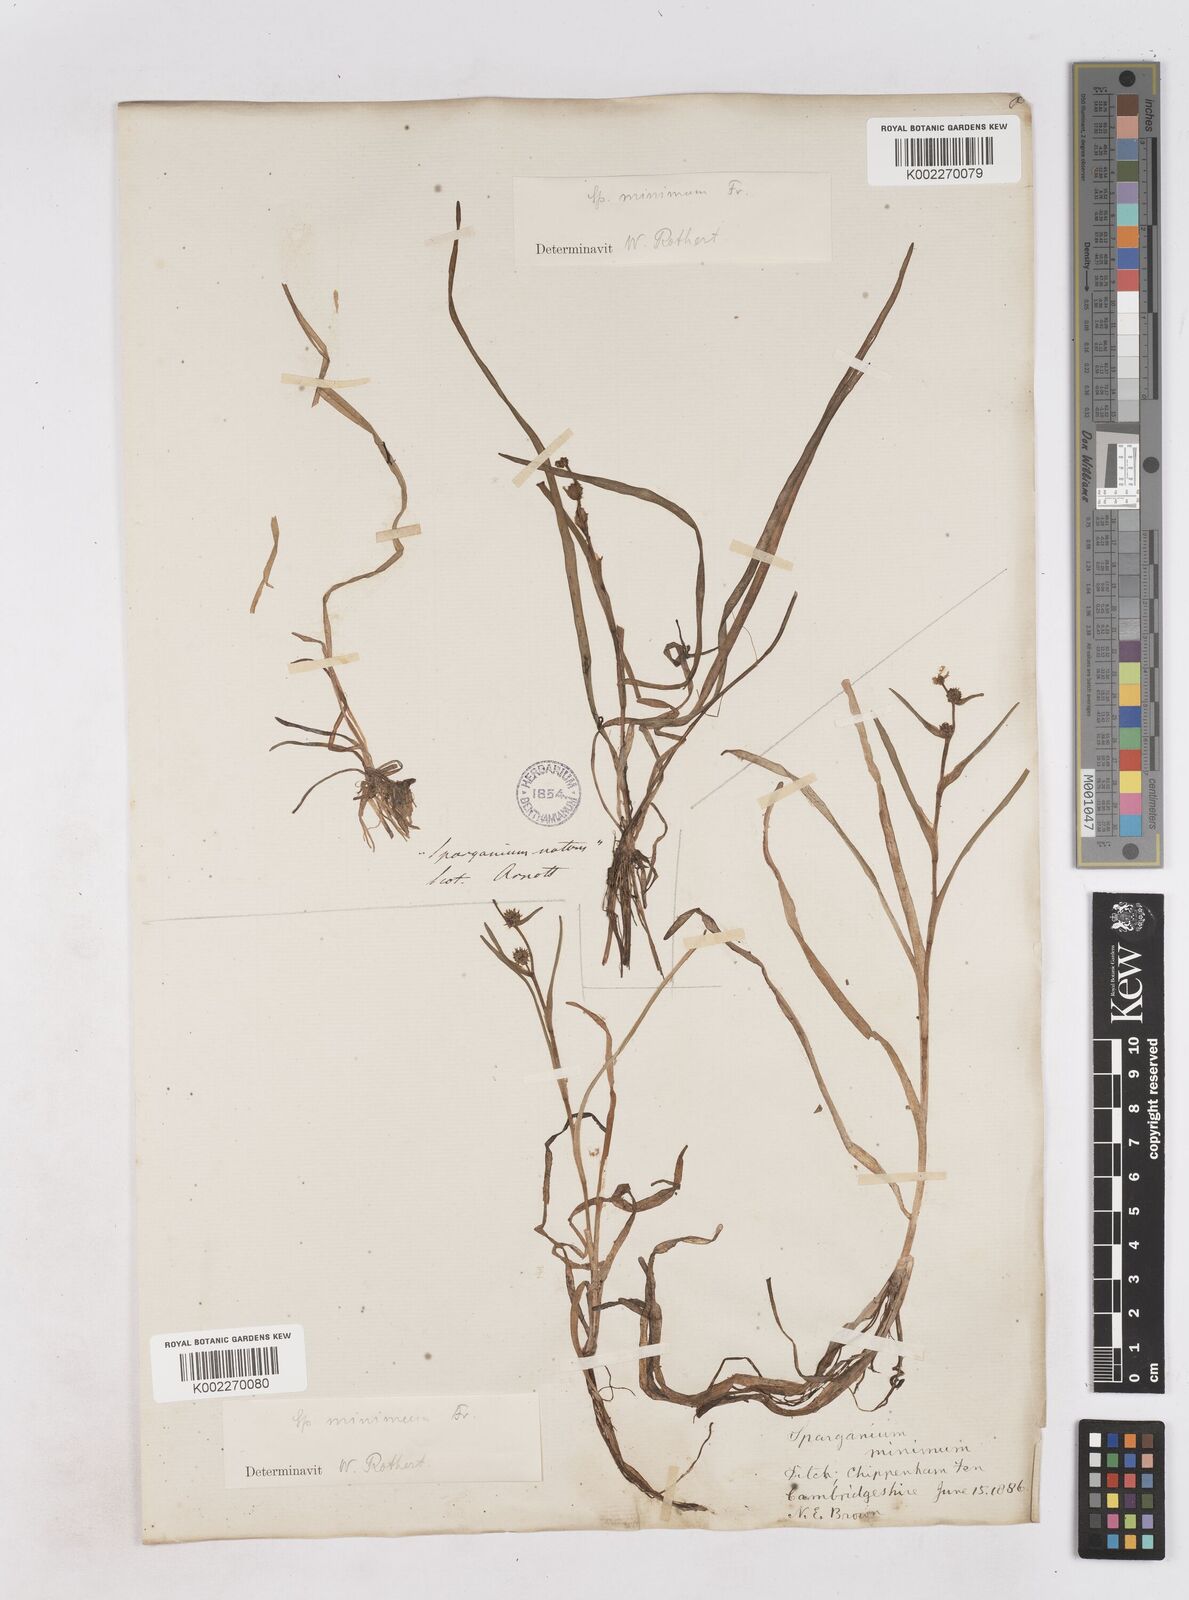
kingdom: Plantae
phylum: Tracheophyta
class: Liliopsida
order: Poales
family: Typhaceae
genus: Sparganium
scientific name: Sparganium natans
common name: Least bur-reed
